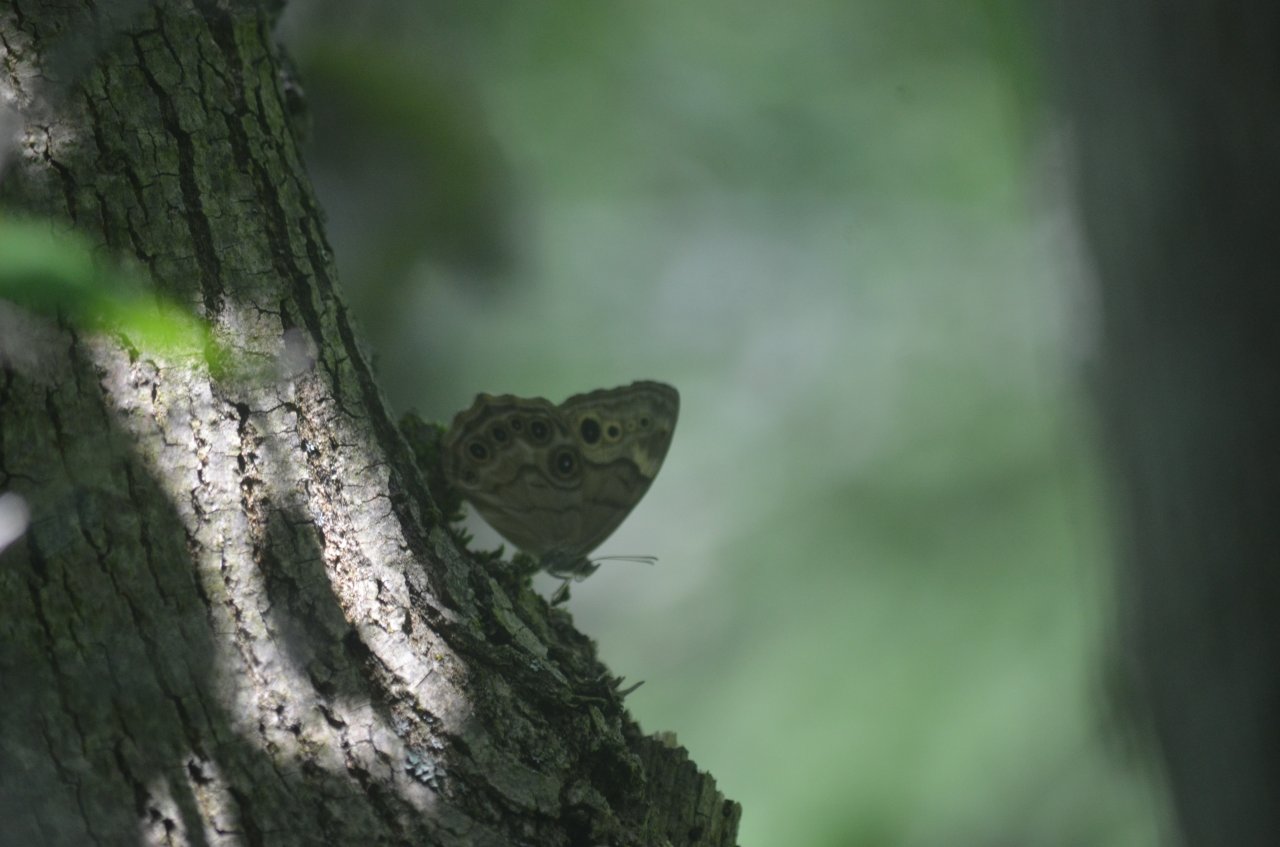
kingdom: Animalia
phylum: Arthropoda
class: Insecta
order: Lepidoptera
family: Nymphalidae
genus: Lethe
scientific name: Lethe anthedon
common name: Northern Pearly-Eye
